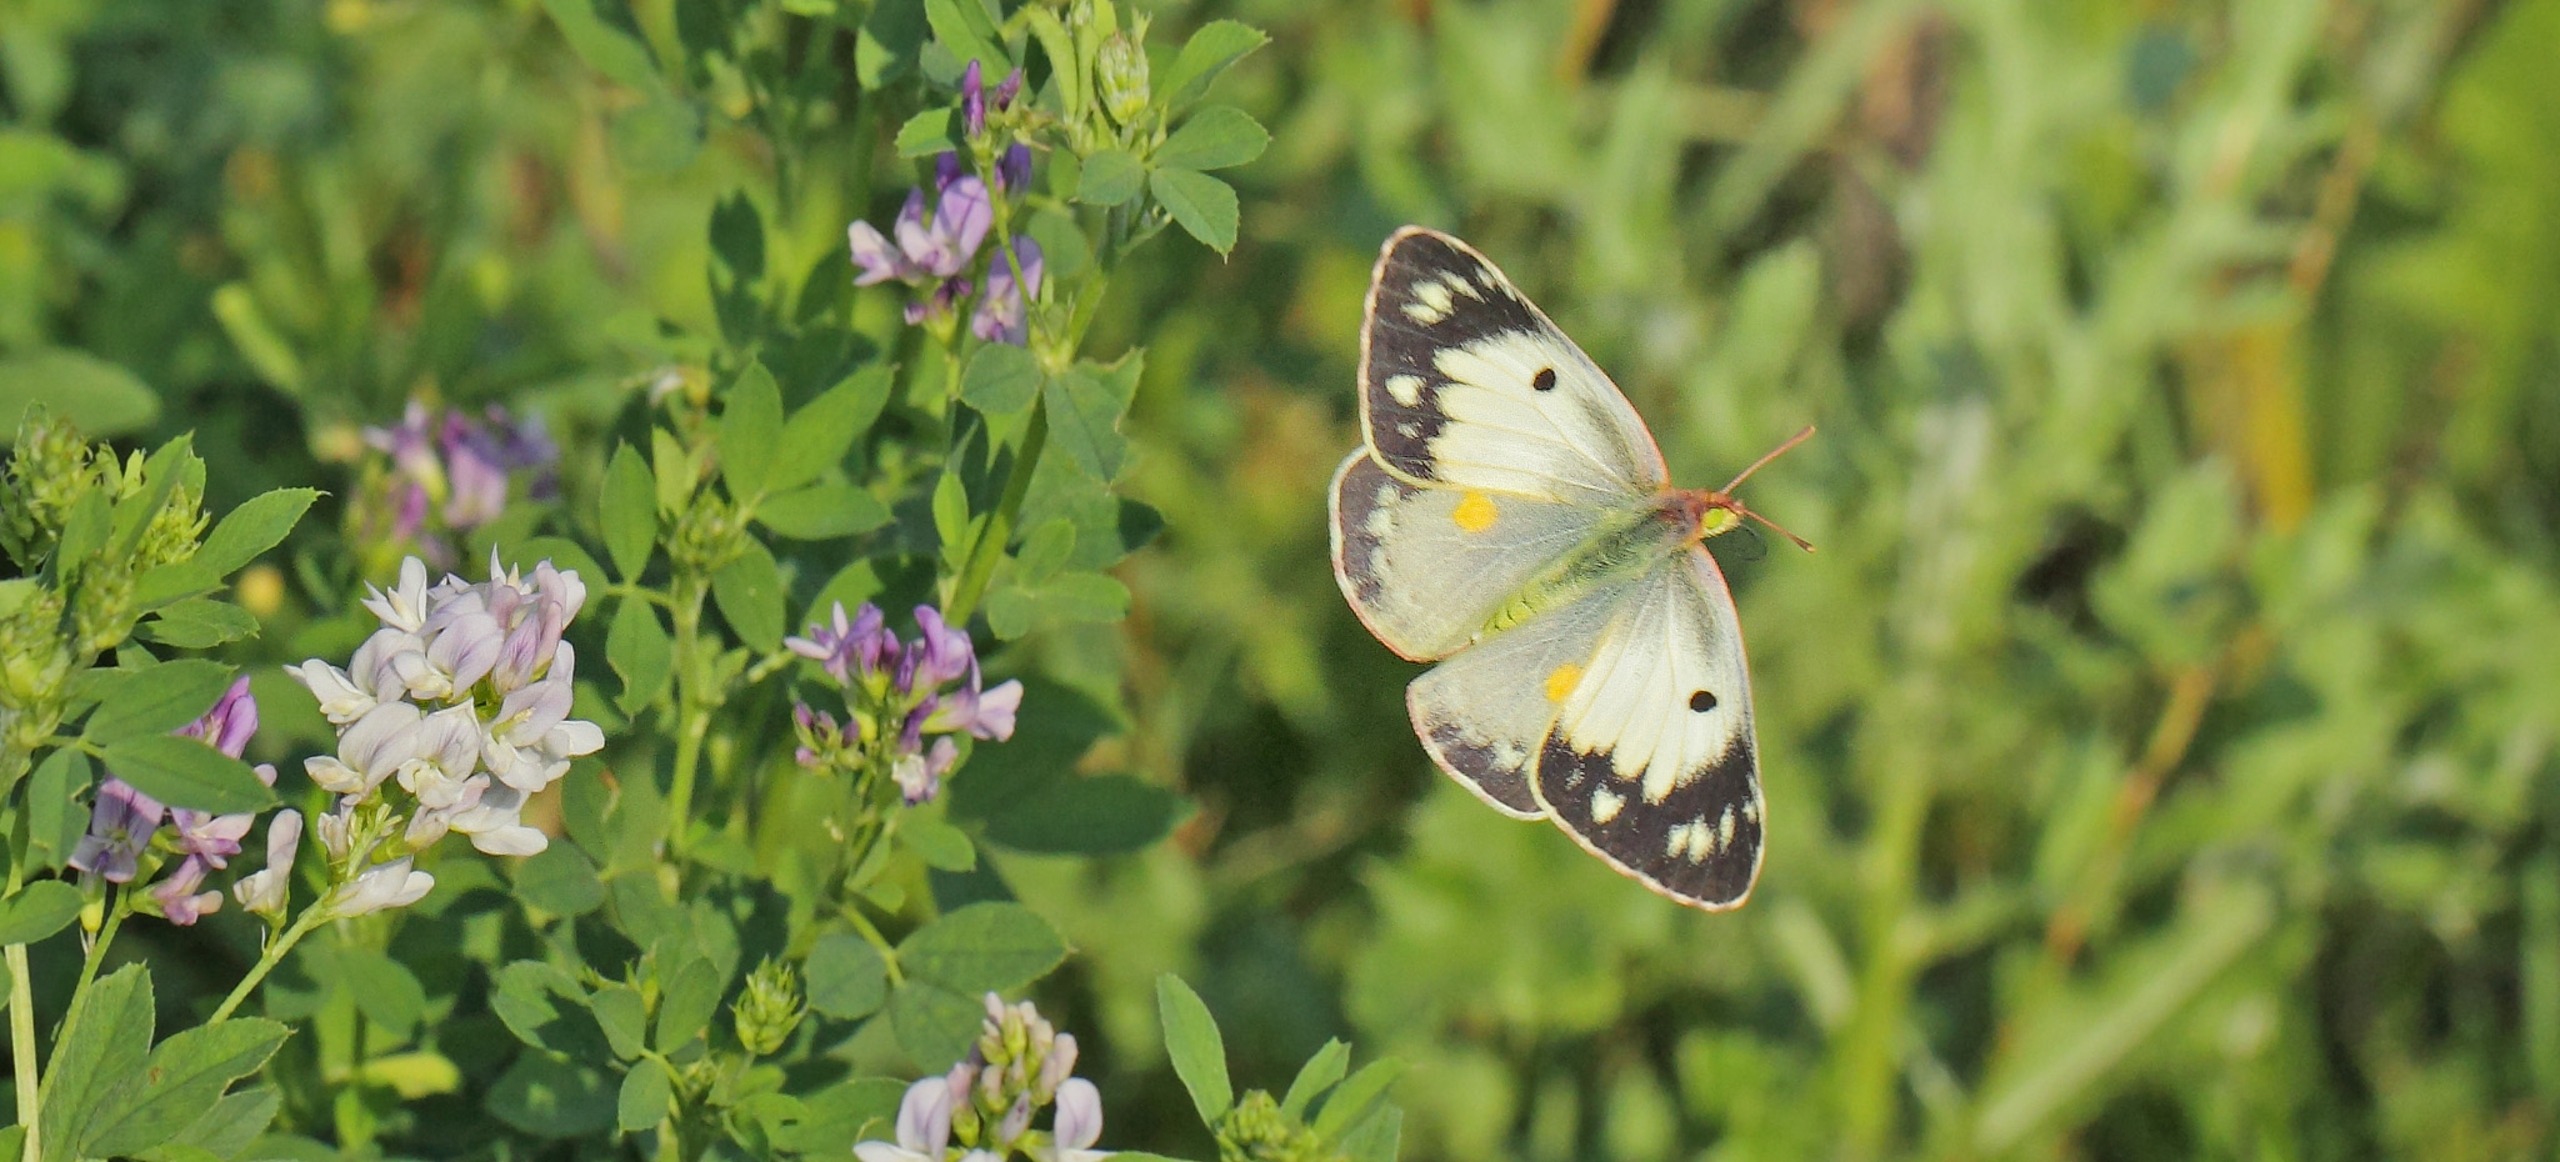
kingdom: Animalia
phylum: Arthropoda
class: Insecta
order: Lepidoptera
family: Pieridae
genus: Colias
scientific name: Colias croceus
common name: Orange høsommerfugl
